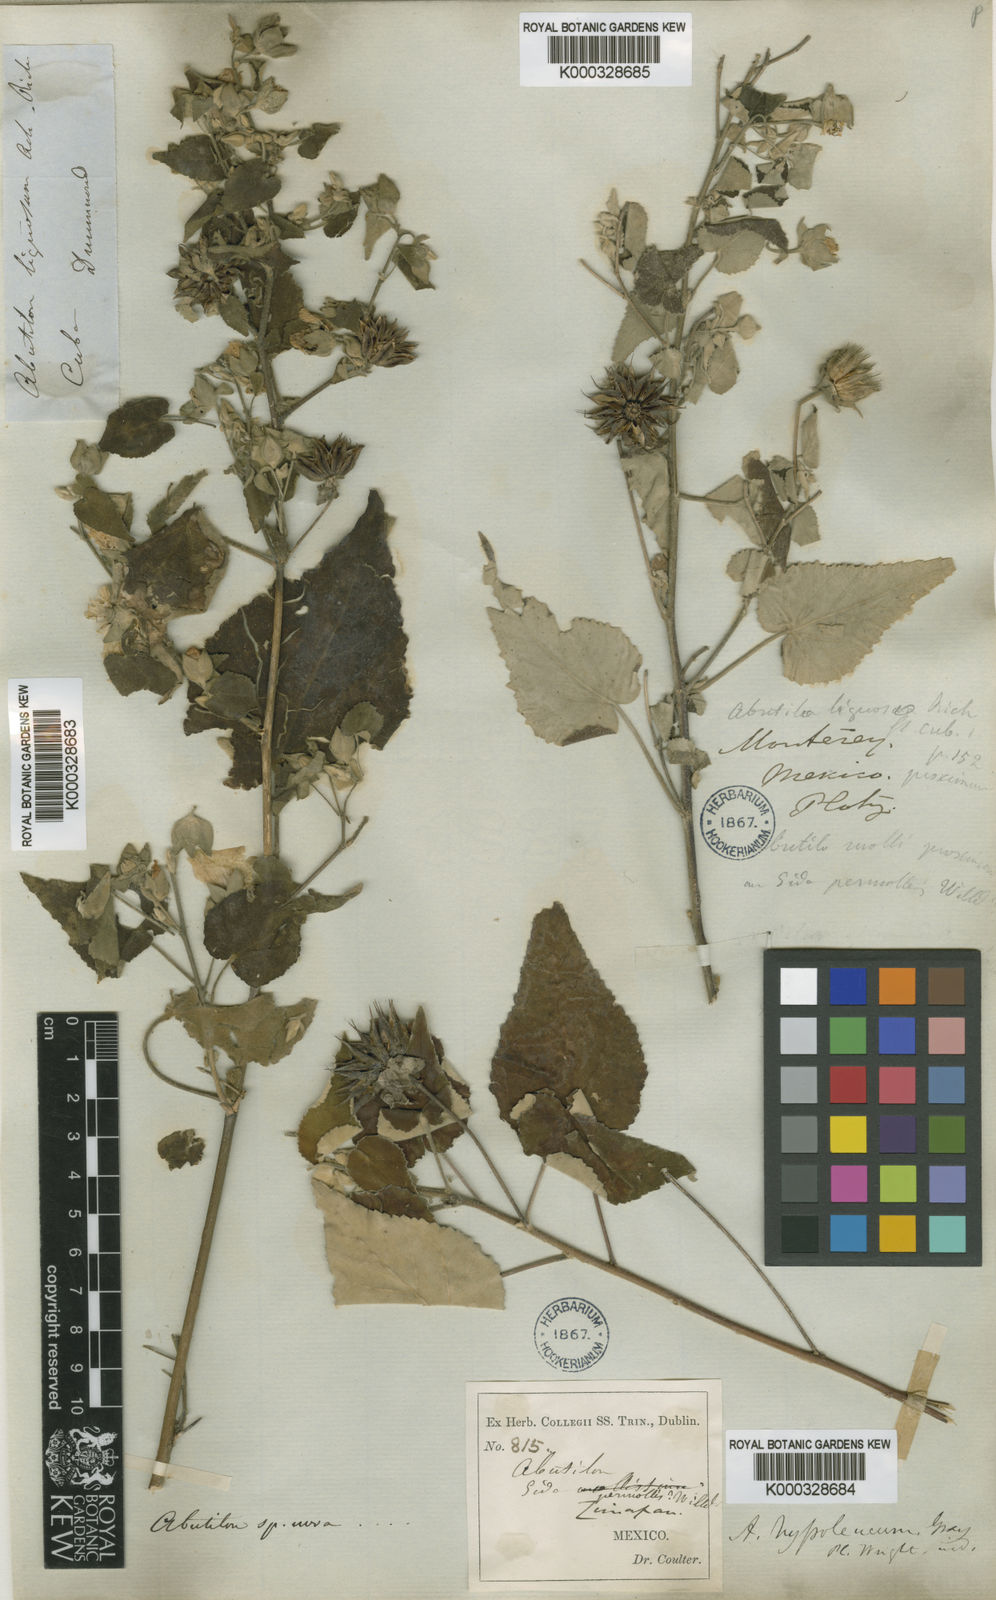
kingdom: Plantae
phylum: Tracheophyta
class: Magnoliopsida
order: Malvales
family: Malvaceae
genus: Abutilon
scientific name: Abutilon hypoleucum
